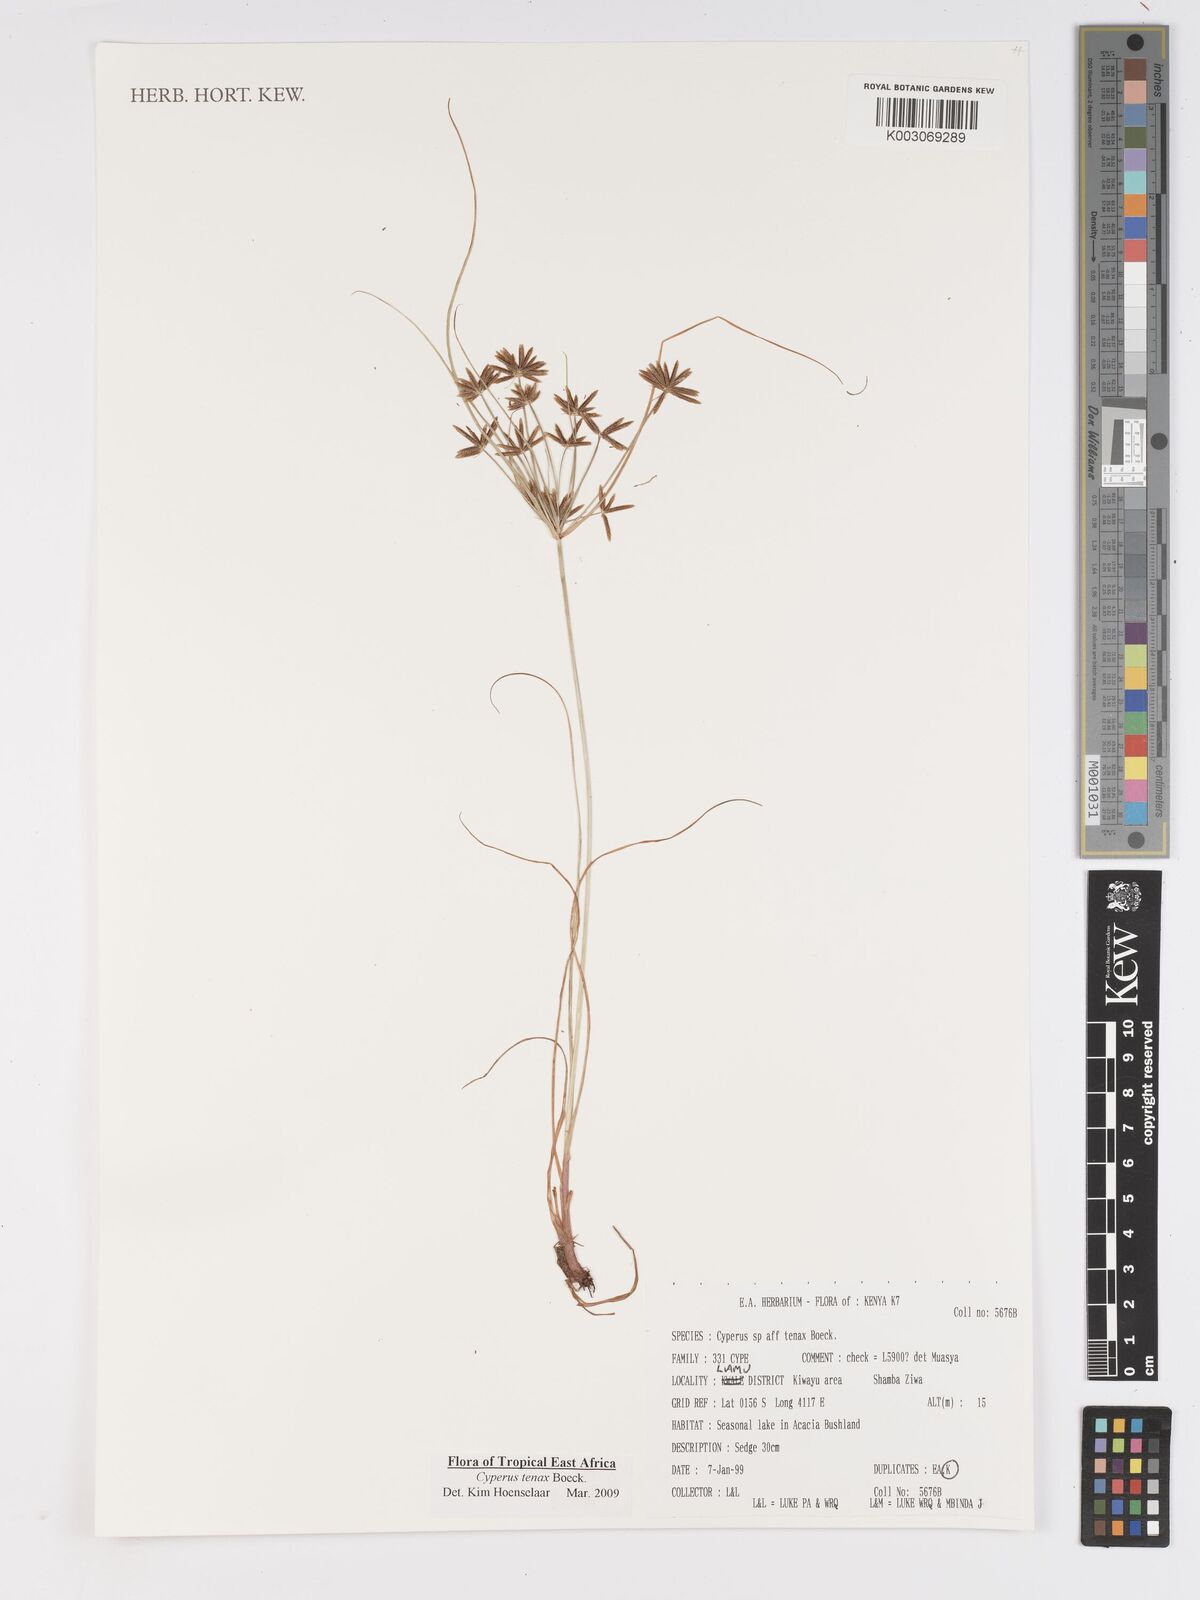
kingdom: Plantae
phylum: Tracheophyta
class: Liliopsida
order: Poales
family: Cyperaceae
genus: Cyperus
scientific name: Cyperus tenax
